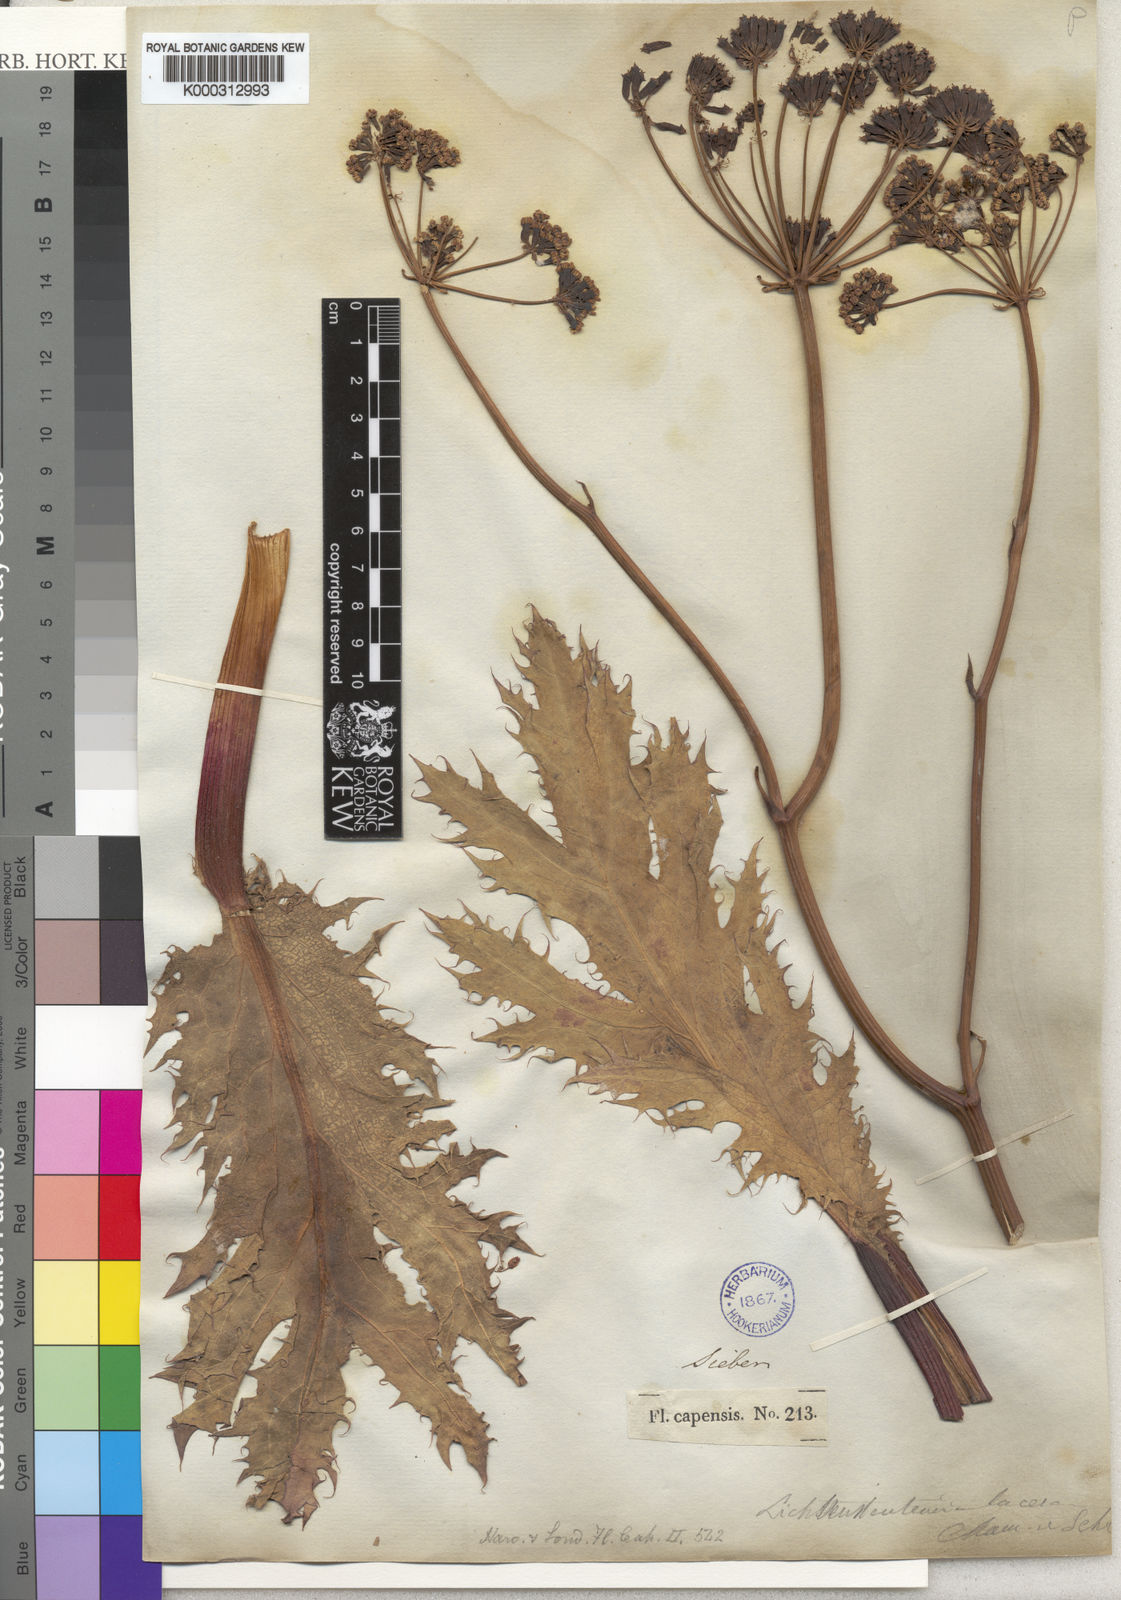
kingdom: Plantae
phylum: Tracheophyta
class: Magnoliopsida
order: Apiales
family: Apiaceae
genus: Lichtensteinia
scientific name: Lichtensteinia lacera
